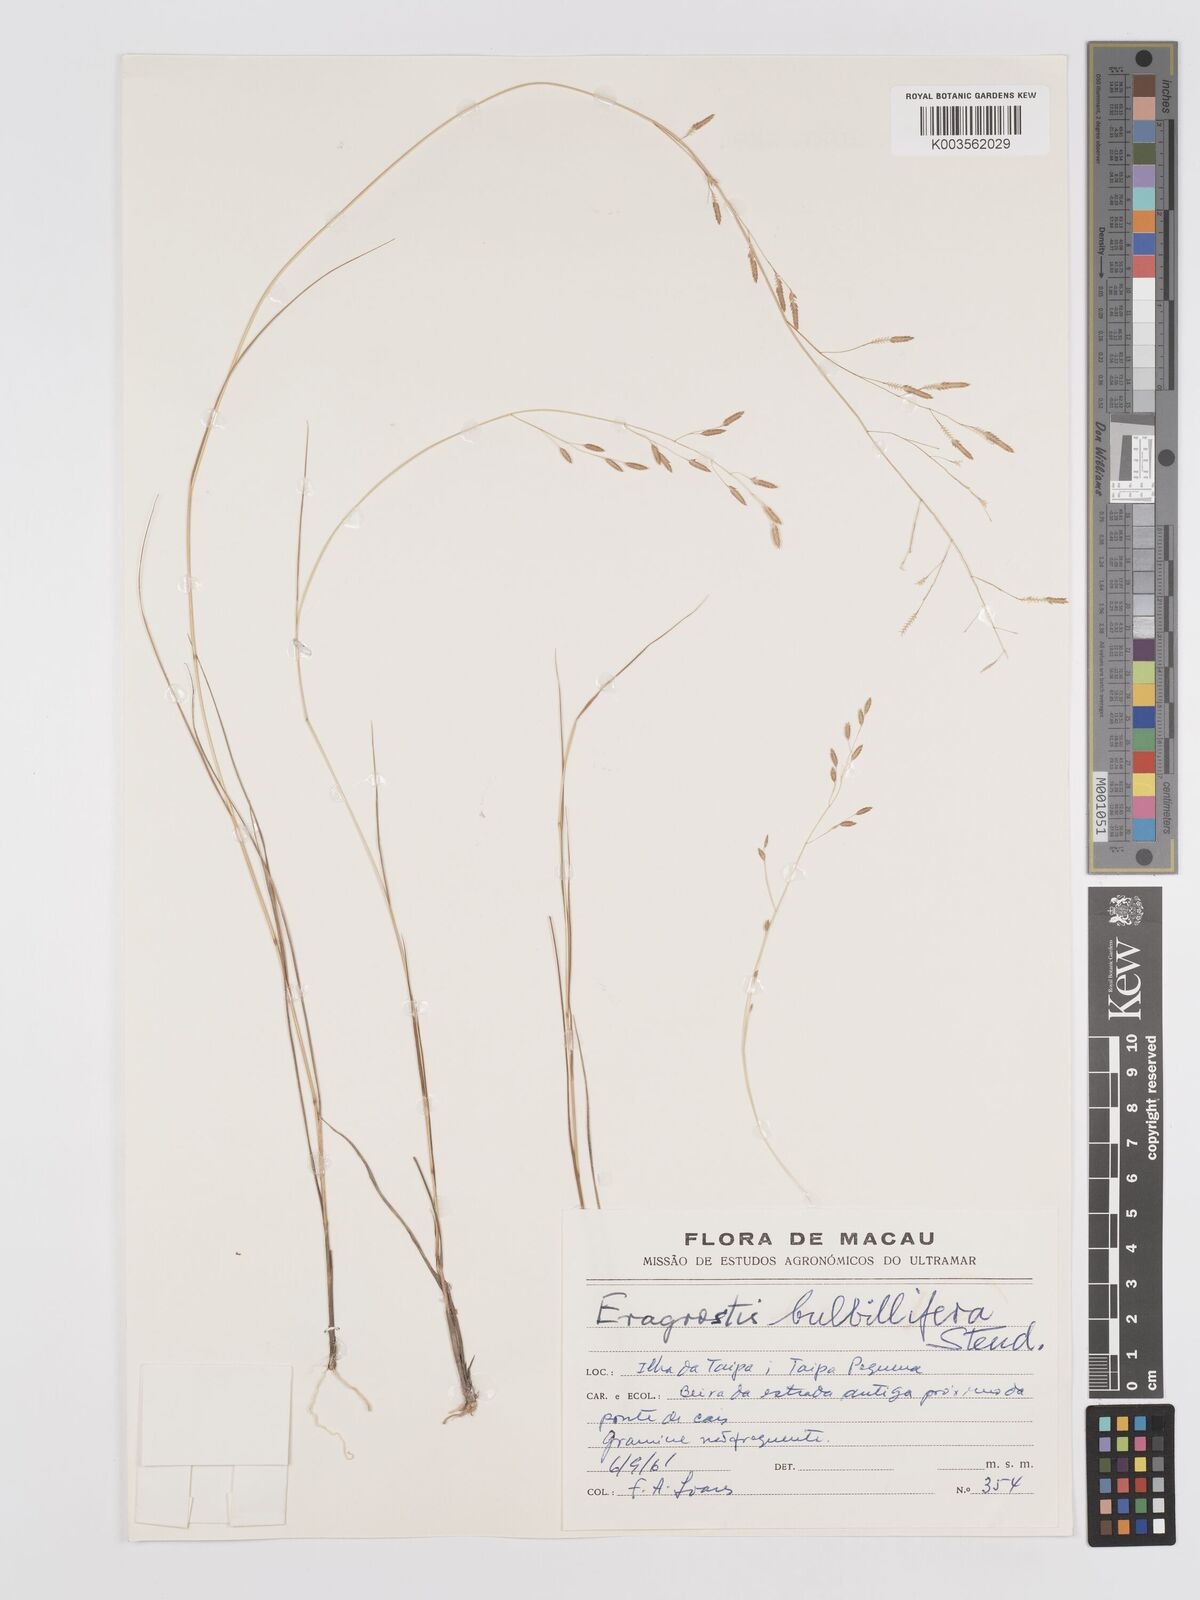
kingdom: Plantae
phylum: Tracheophyta
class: Liliopsida
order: Poales
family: Poaceae
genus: Eragrostis
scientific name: Eragrostis cumingii
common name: Cuming's lovegrass
